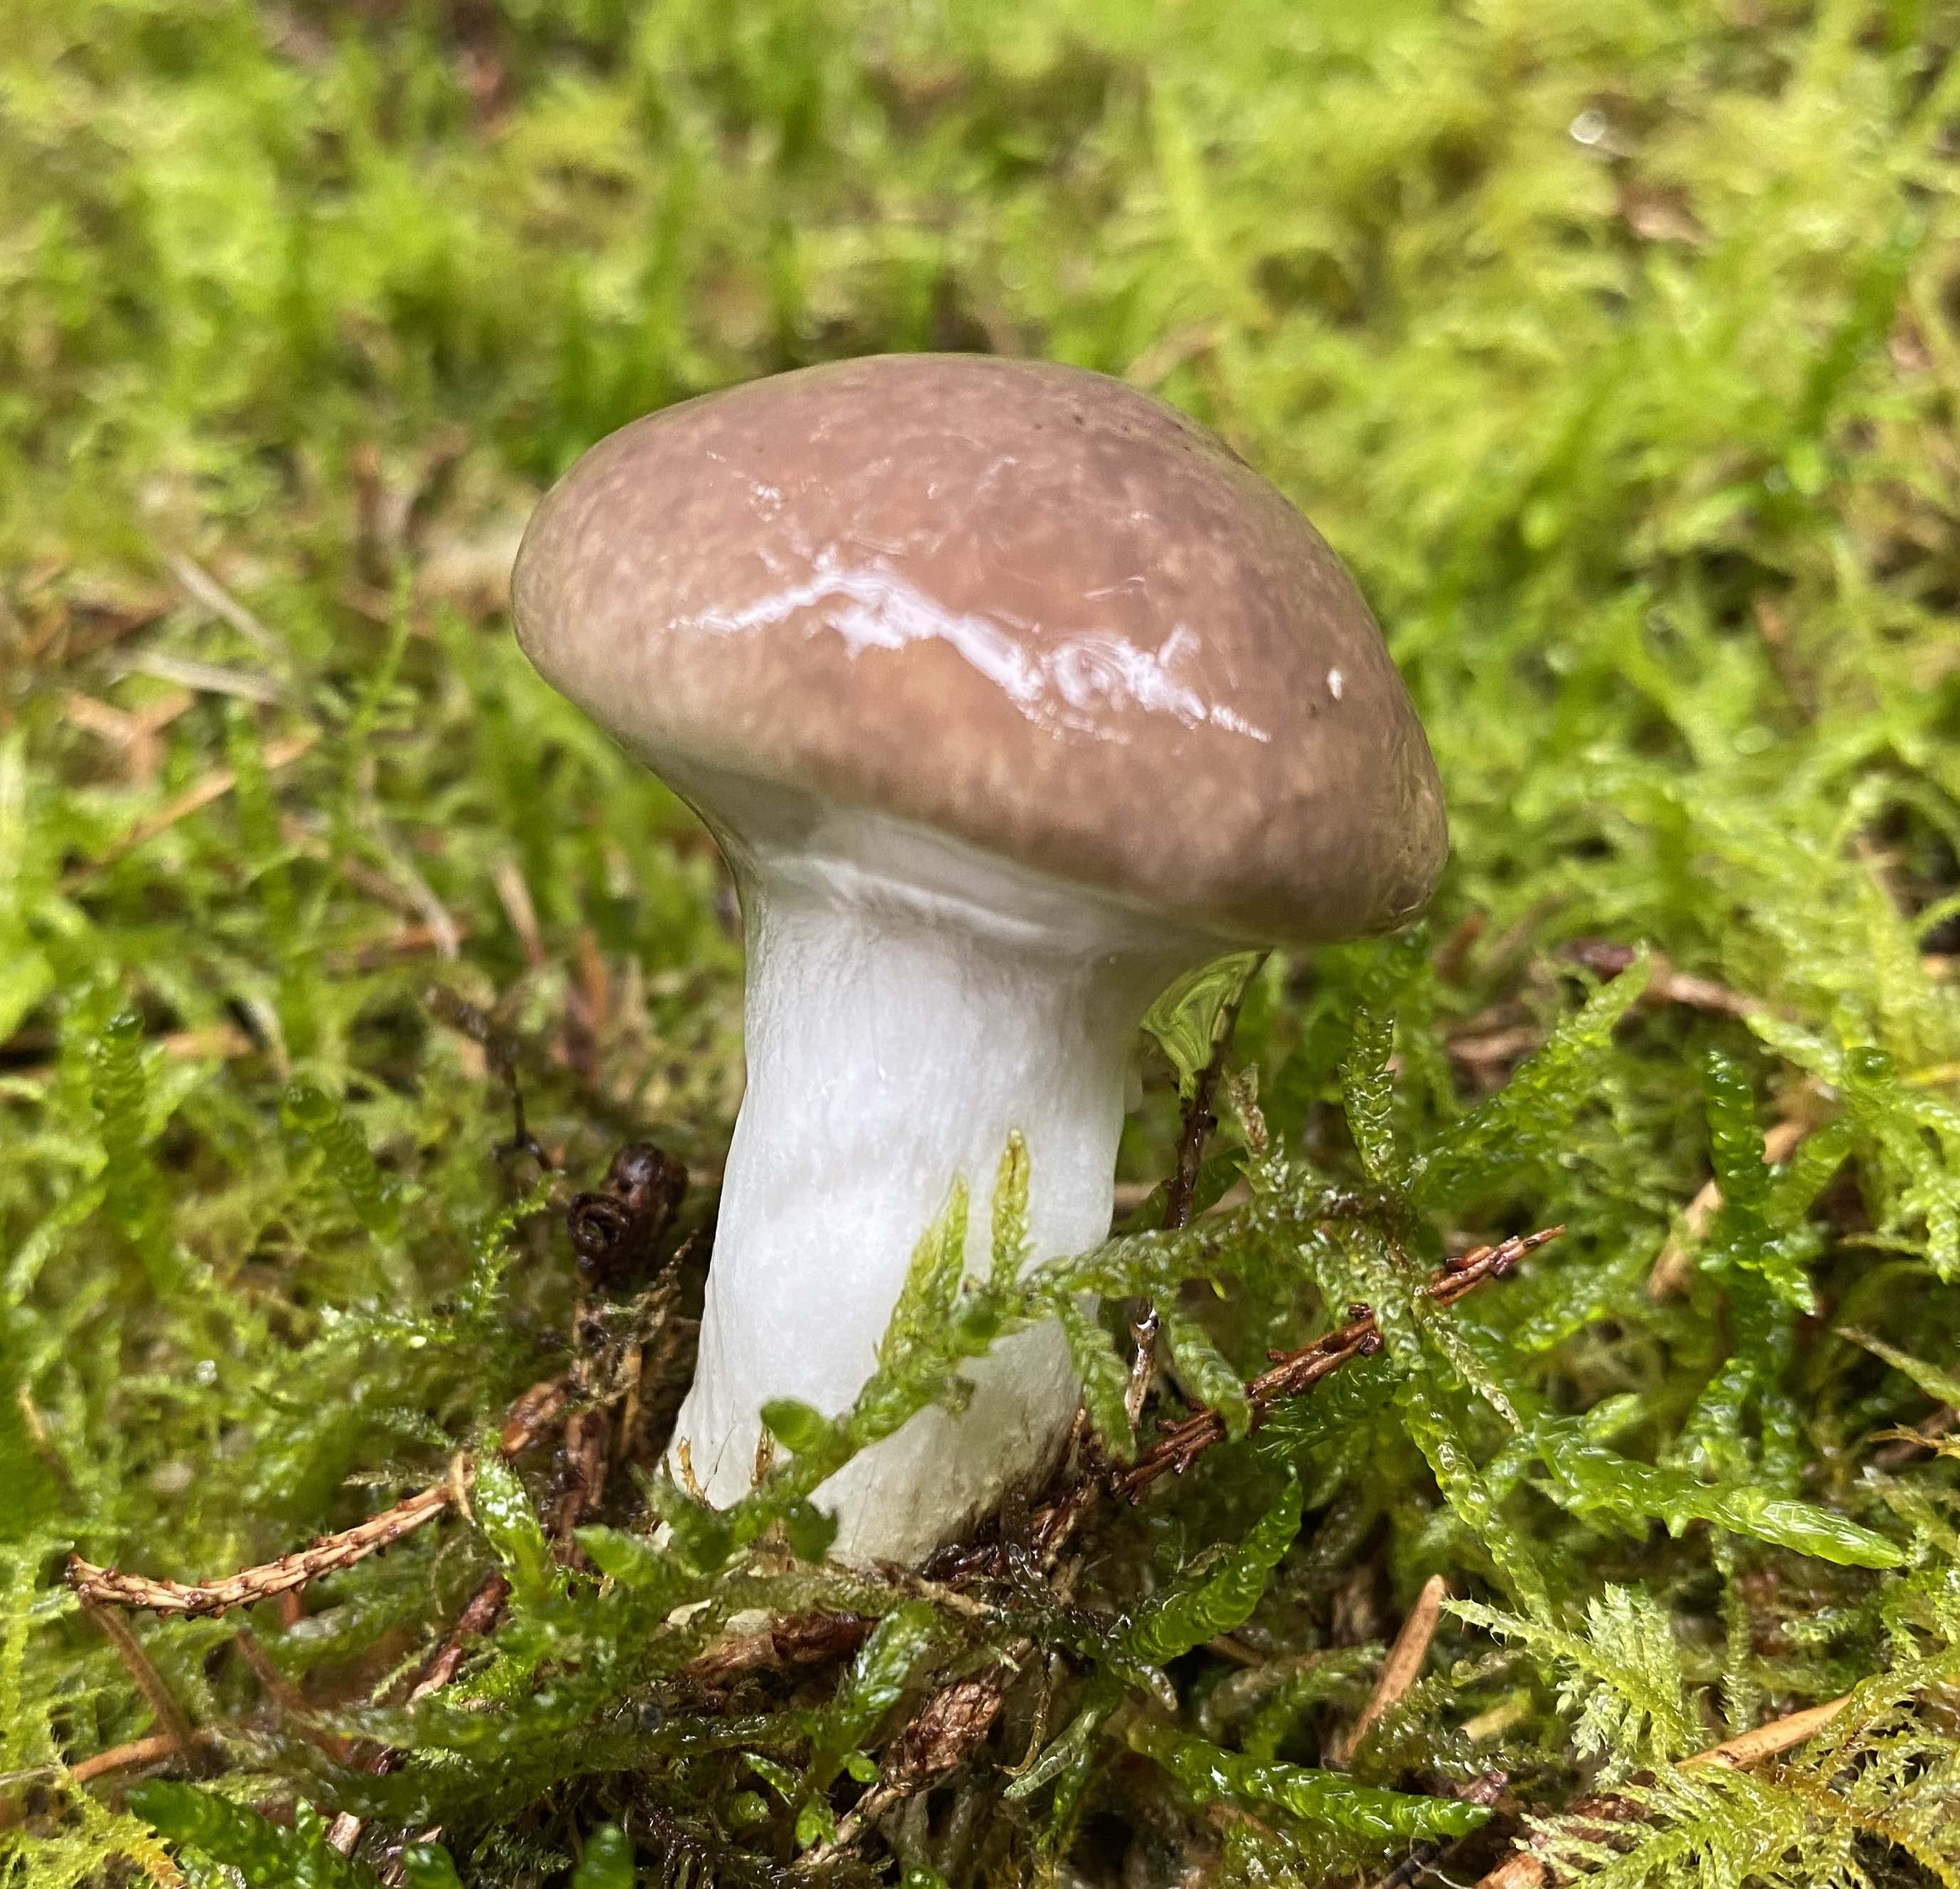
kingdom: Fungi
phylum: Basidiomycota
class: Agaricomycetes
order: Boletales
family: Gomphidiaceae
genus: Gomphidius
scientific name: Gomphidius glutinosus
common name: grå slimslør
